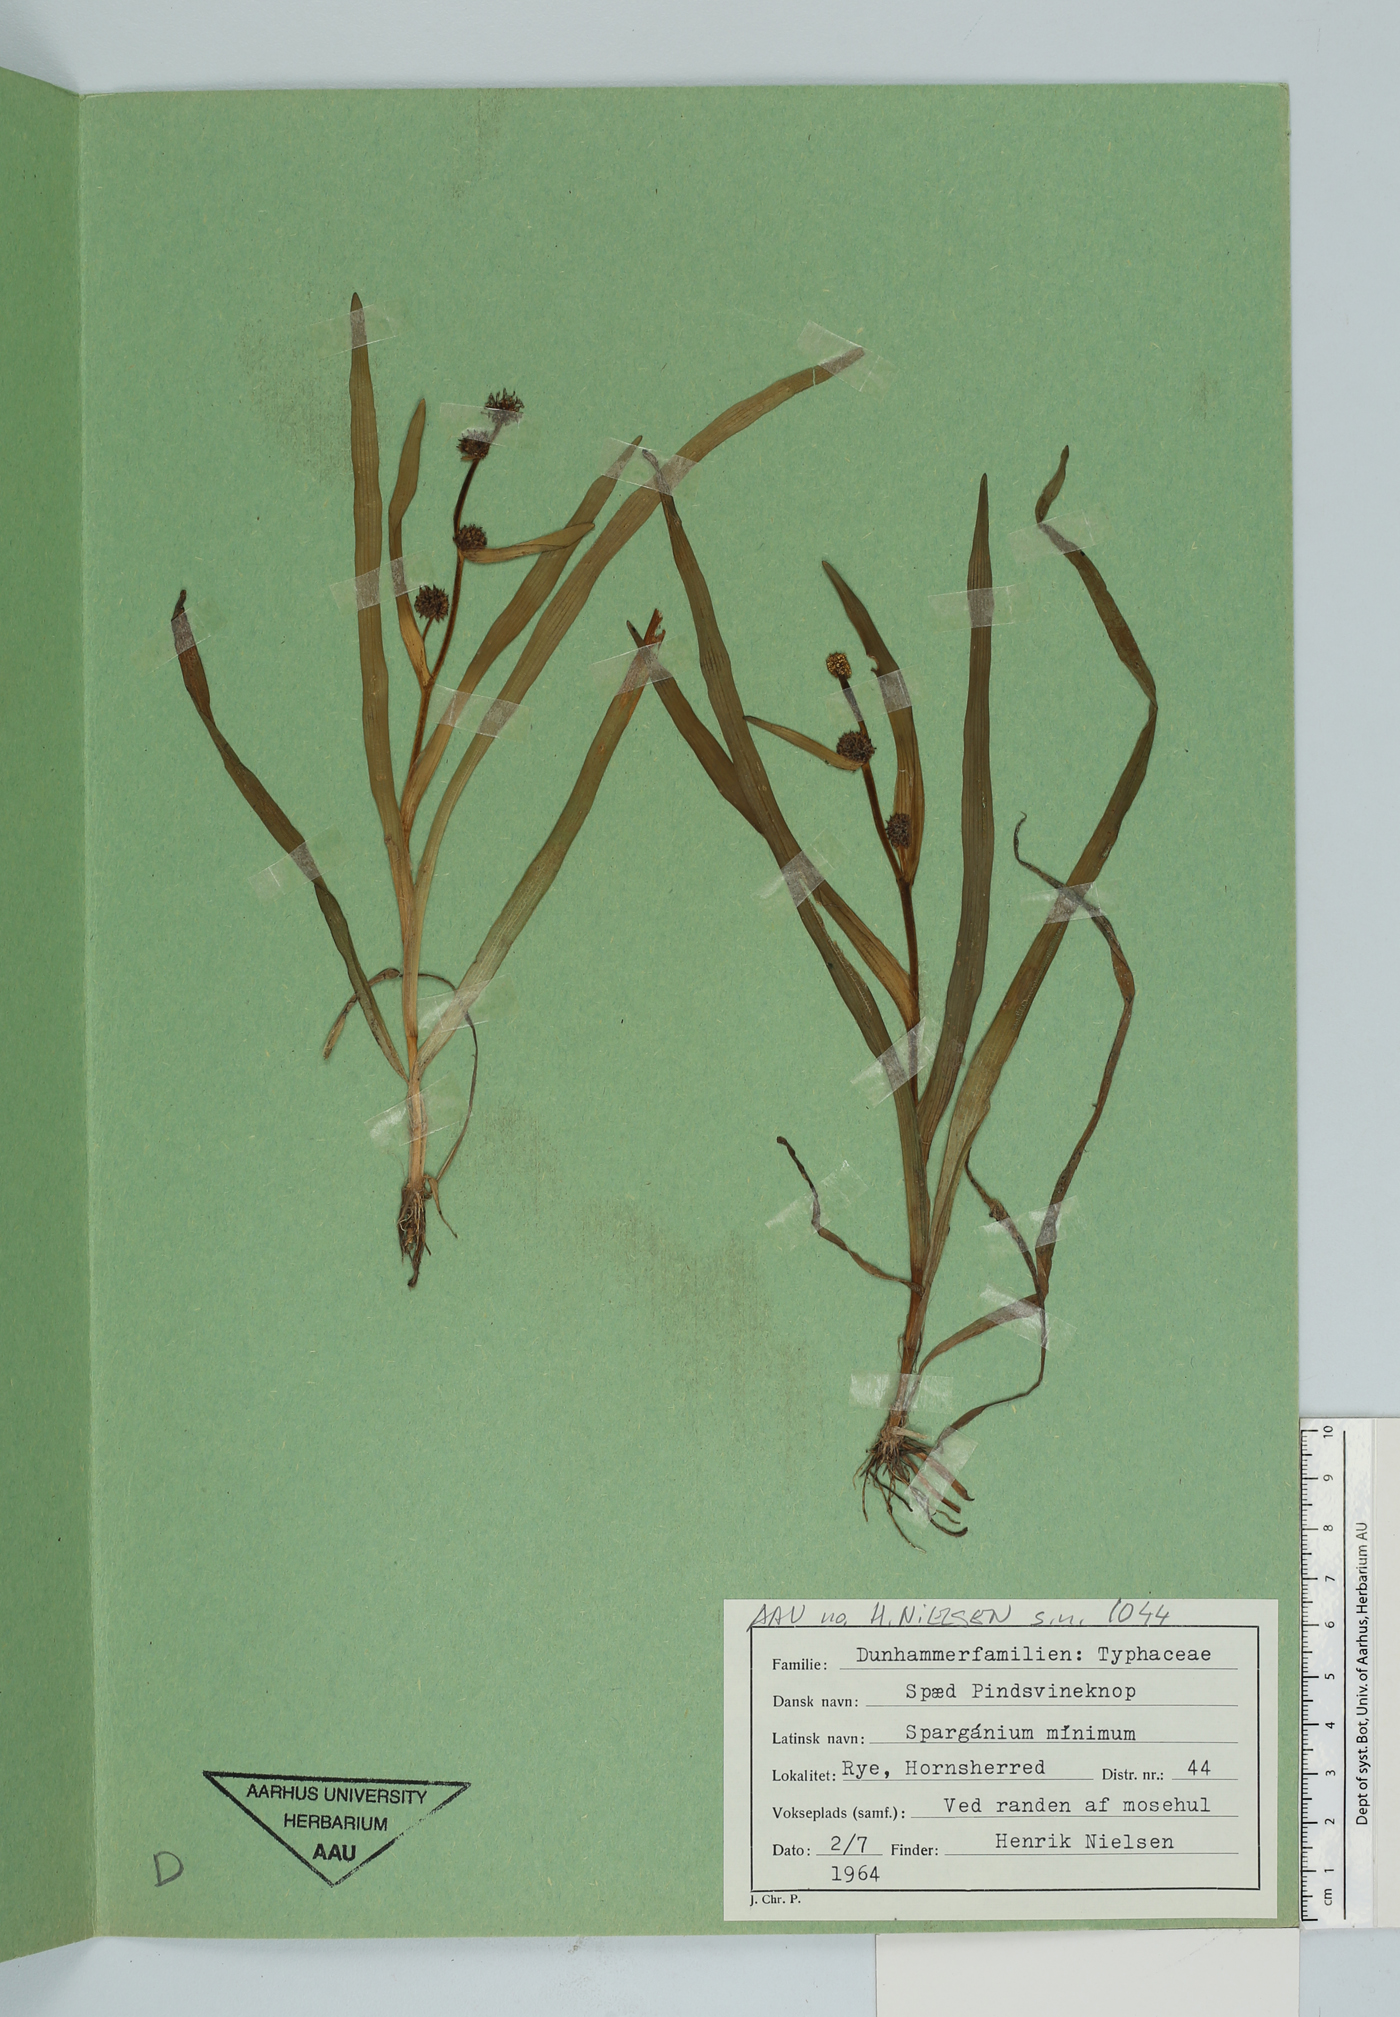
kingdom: Plantae
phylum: Tracheophyta
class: Liliopsida
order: Poales
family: Typhaceae
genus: Sparganium
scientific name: Sparganium natans
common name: Least bur-reed
